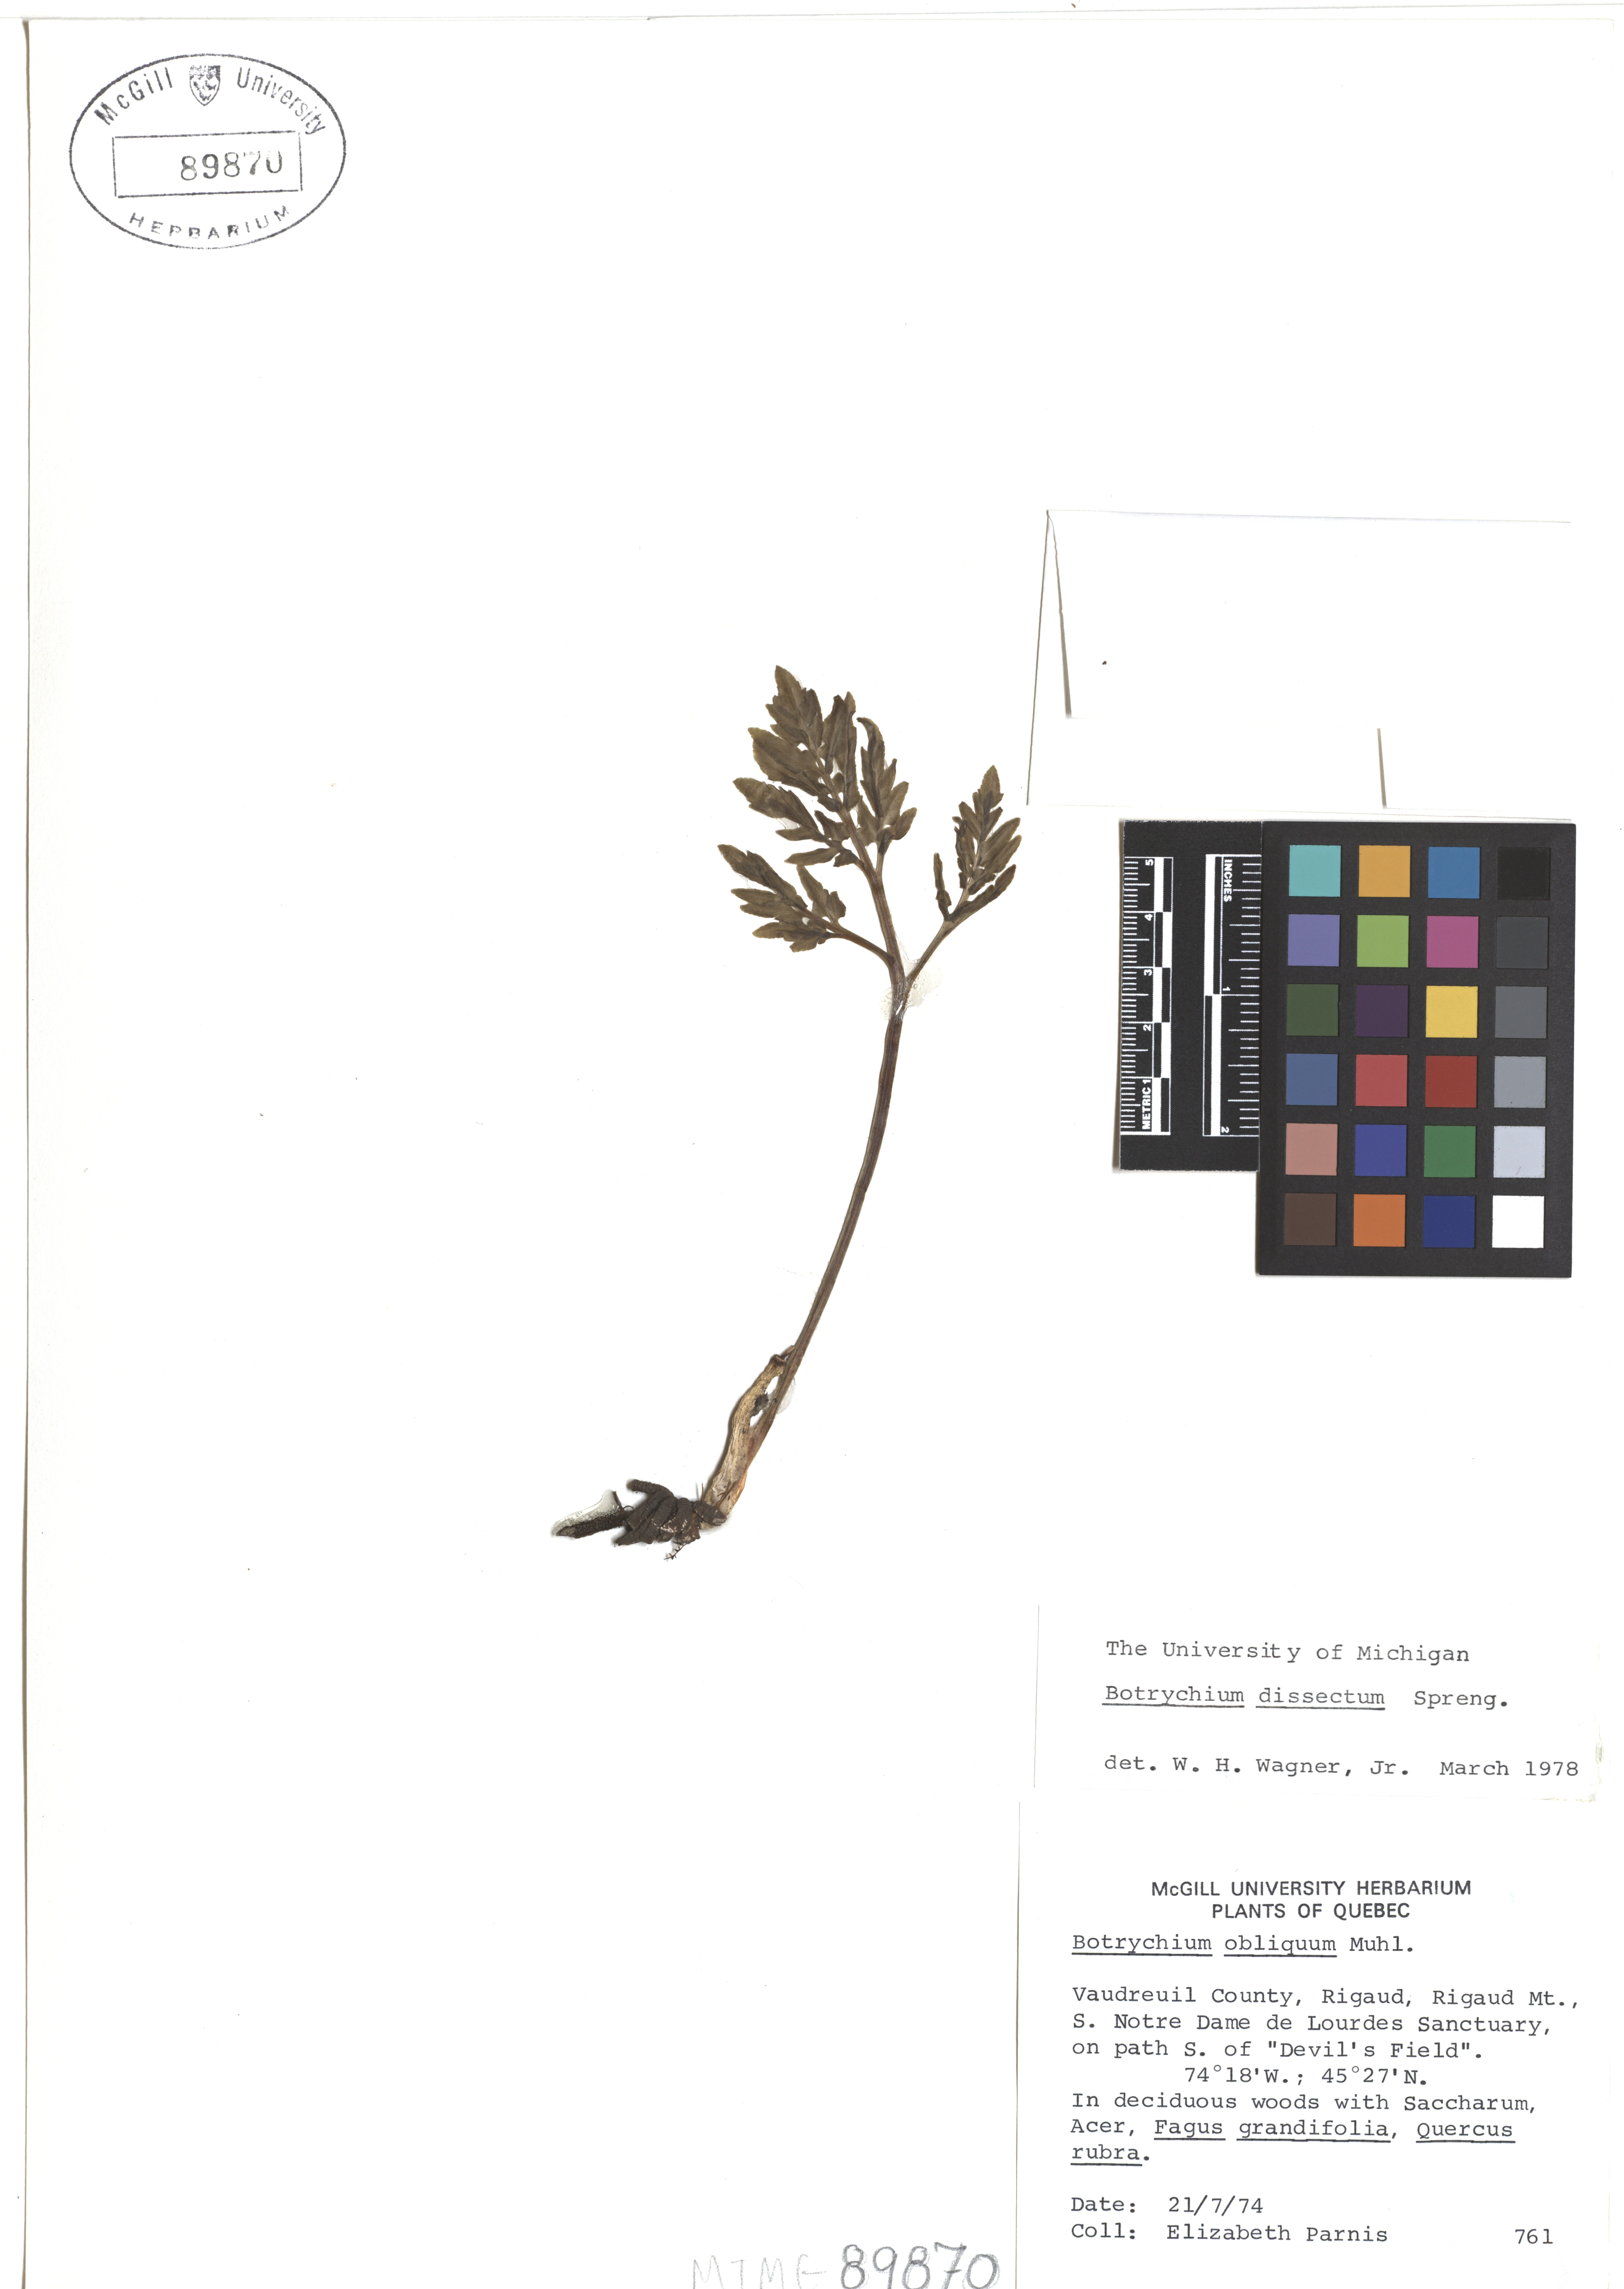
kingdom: Plantae
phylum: Tracheophyta
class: Polypodiopsida
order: Ophioglossales
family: Ophioglossaceae
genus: Sceptridium
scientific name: Sceptridium dissectum
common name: Cut-leaved grapefern
